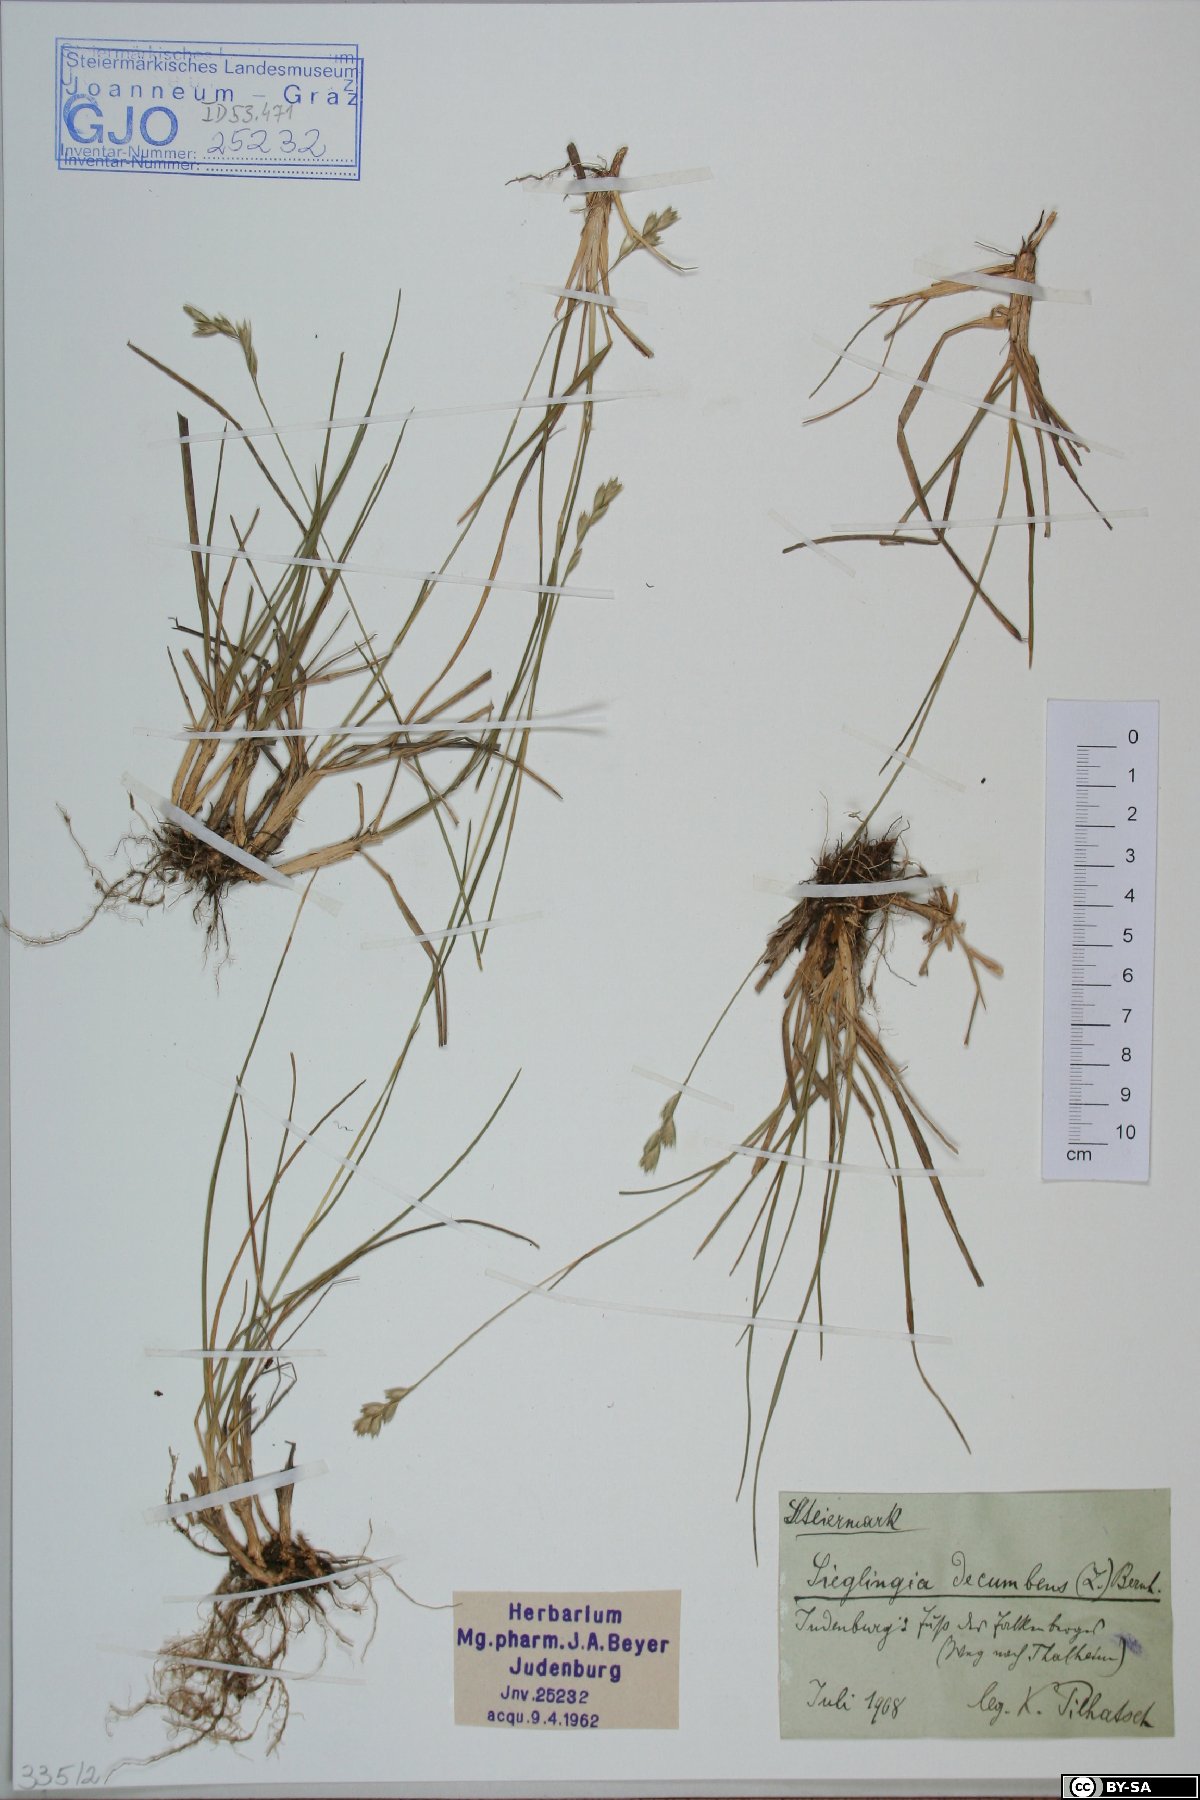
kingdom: Plantae
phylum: Tracheophyta
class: Liliopsida
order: Poales
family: Poaceae
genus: Danthonia
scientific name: Danthonia decumbens
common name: Common heathgrass
